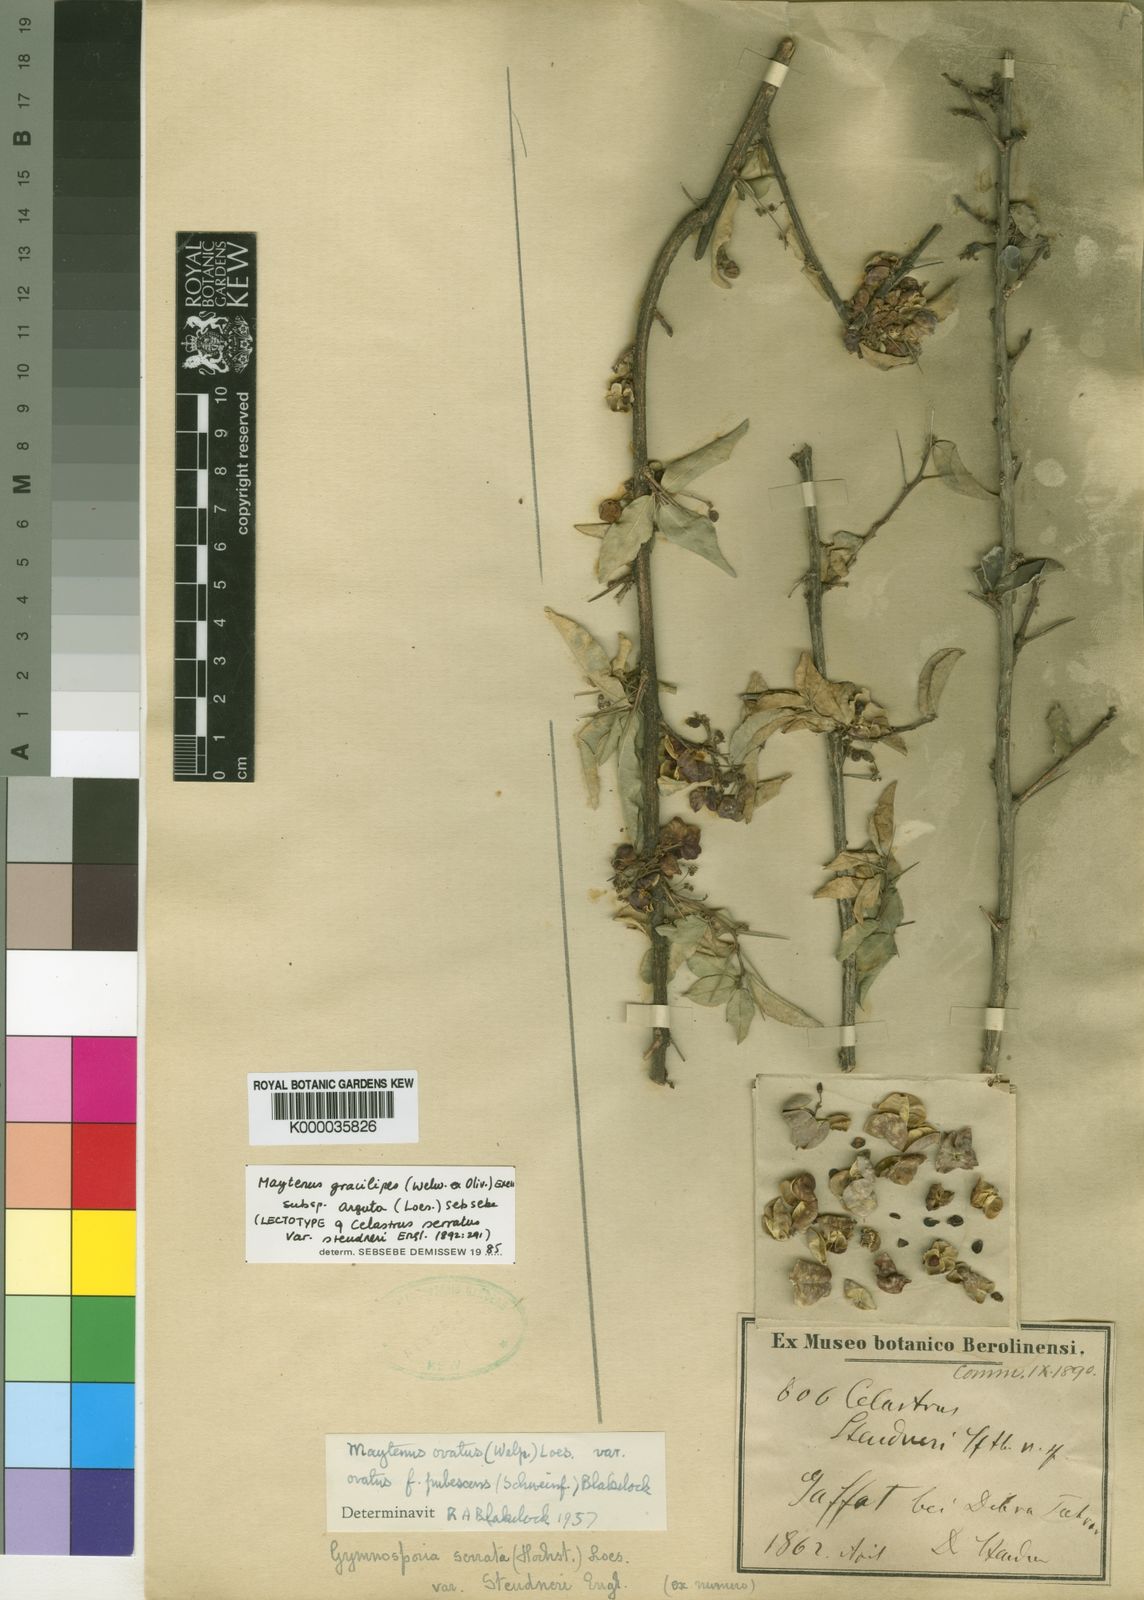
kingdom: Plantae
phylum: Tracheophyta
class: Magnoliopsida
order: Celastrales
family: Celastraceae
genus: Gymnosporia
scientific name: Gymnosporia gracilipes
